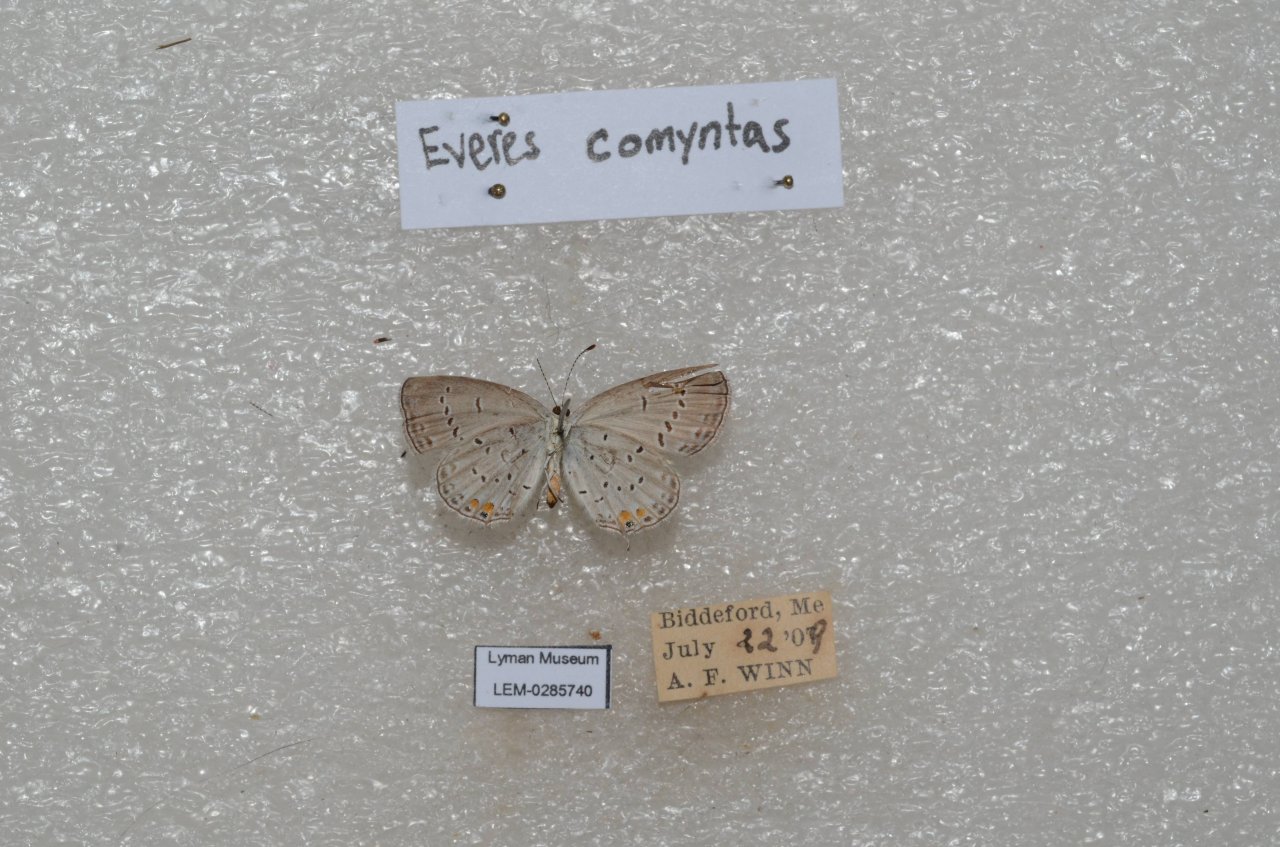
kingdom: Animalia
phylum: Arthropoda
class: Insecta
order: Lepidoptera
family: Lycaenidae
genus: Elkalyce
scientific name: Elkalyce comyntas
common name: Eastern Tailed-Blue
